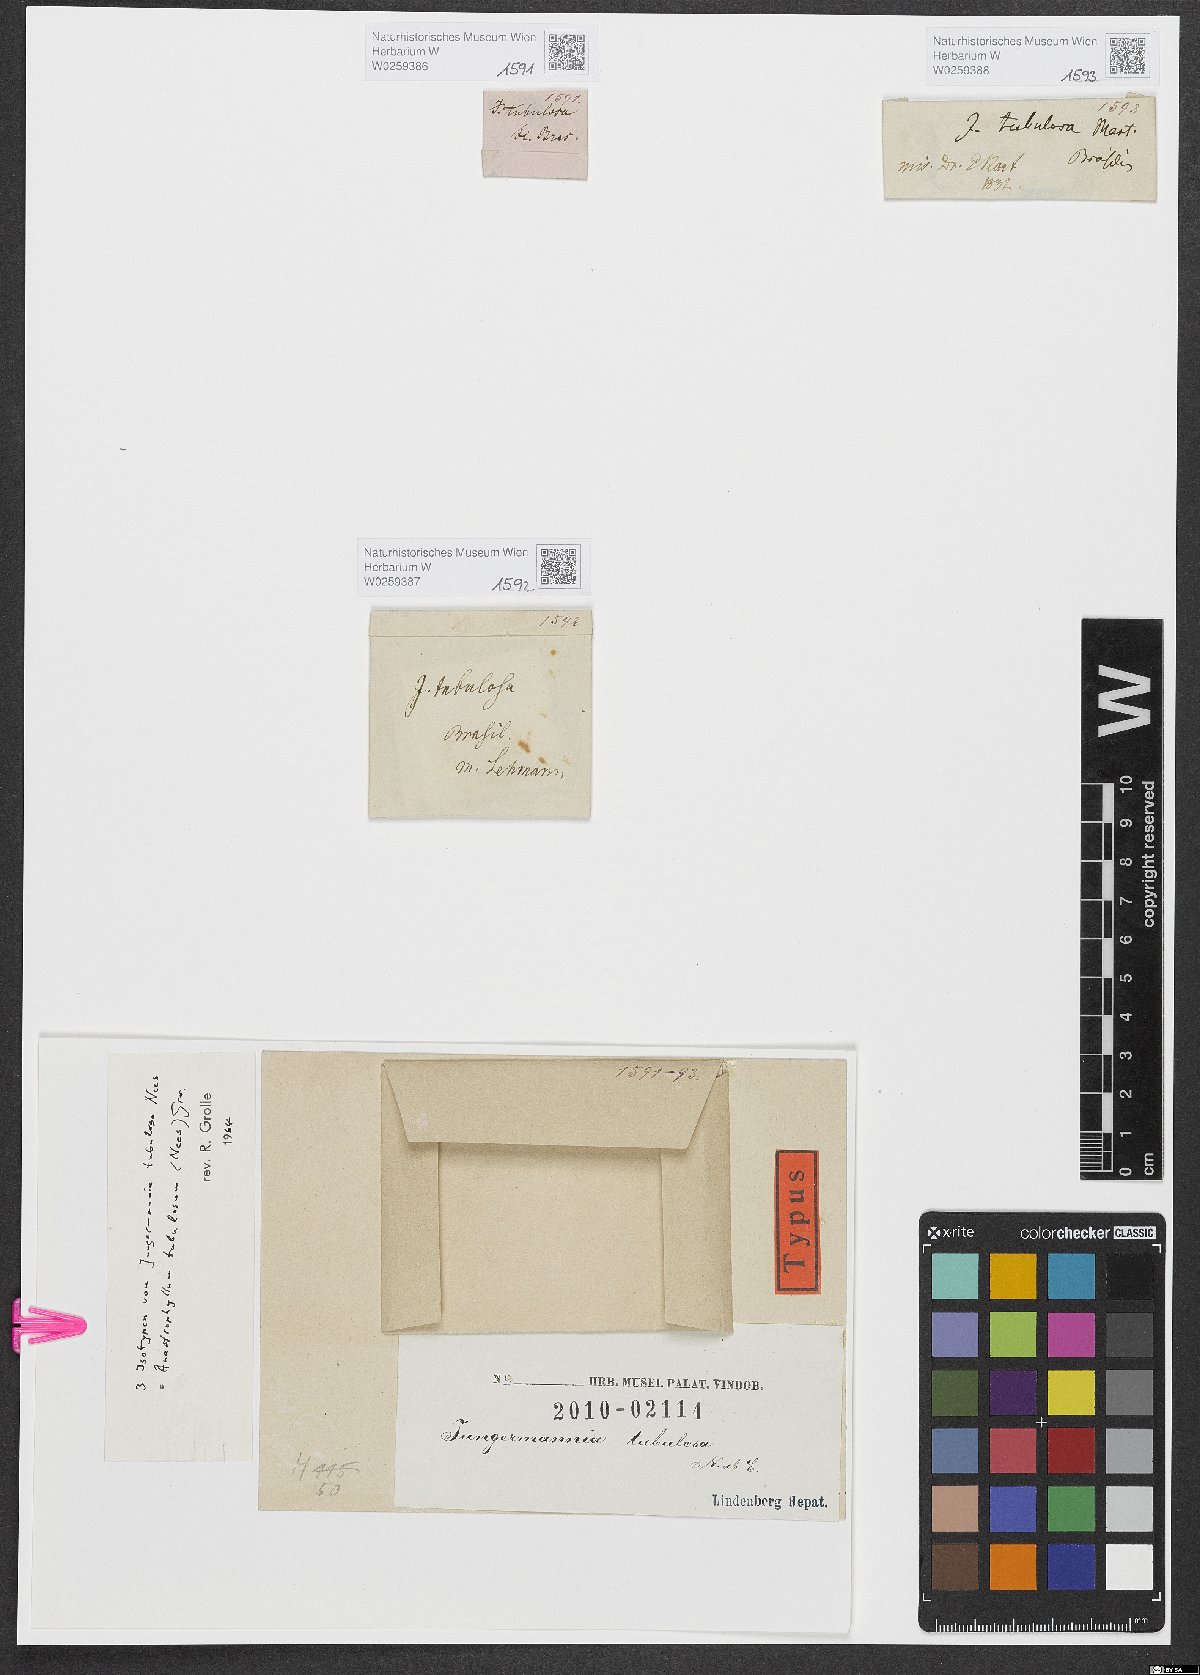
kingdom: Plantae
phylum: Marchantiophyta
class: Jungermanniopsida
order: Jungermanniales
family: Anastrophyllaceae
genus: Anastrophyllum
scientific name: Anastrophyllum tubulosum
